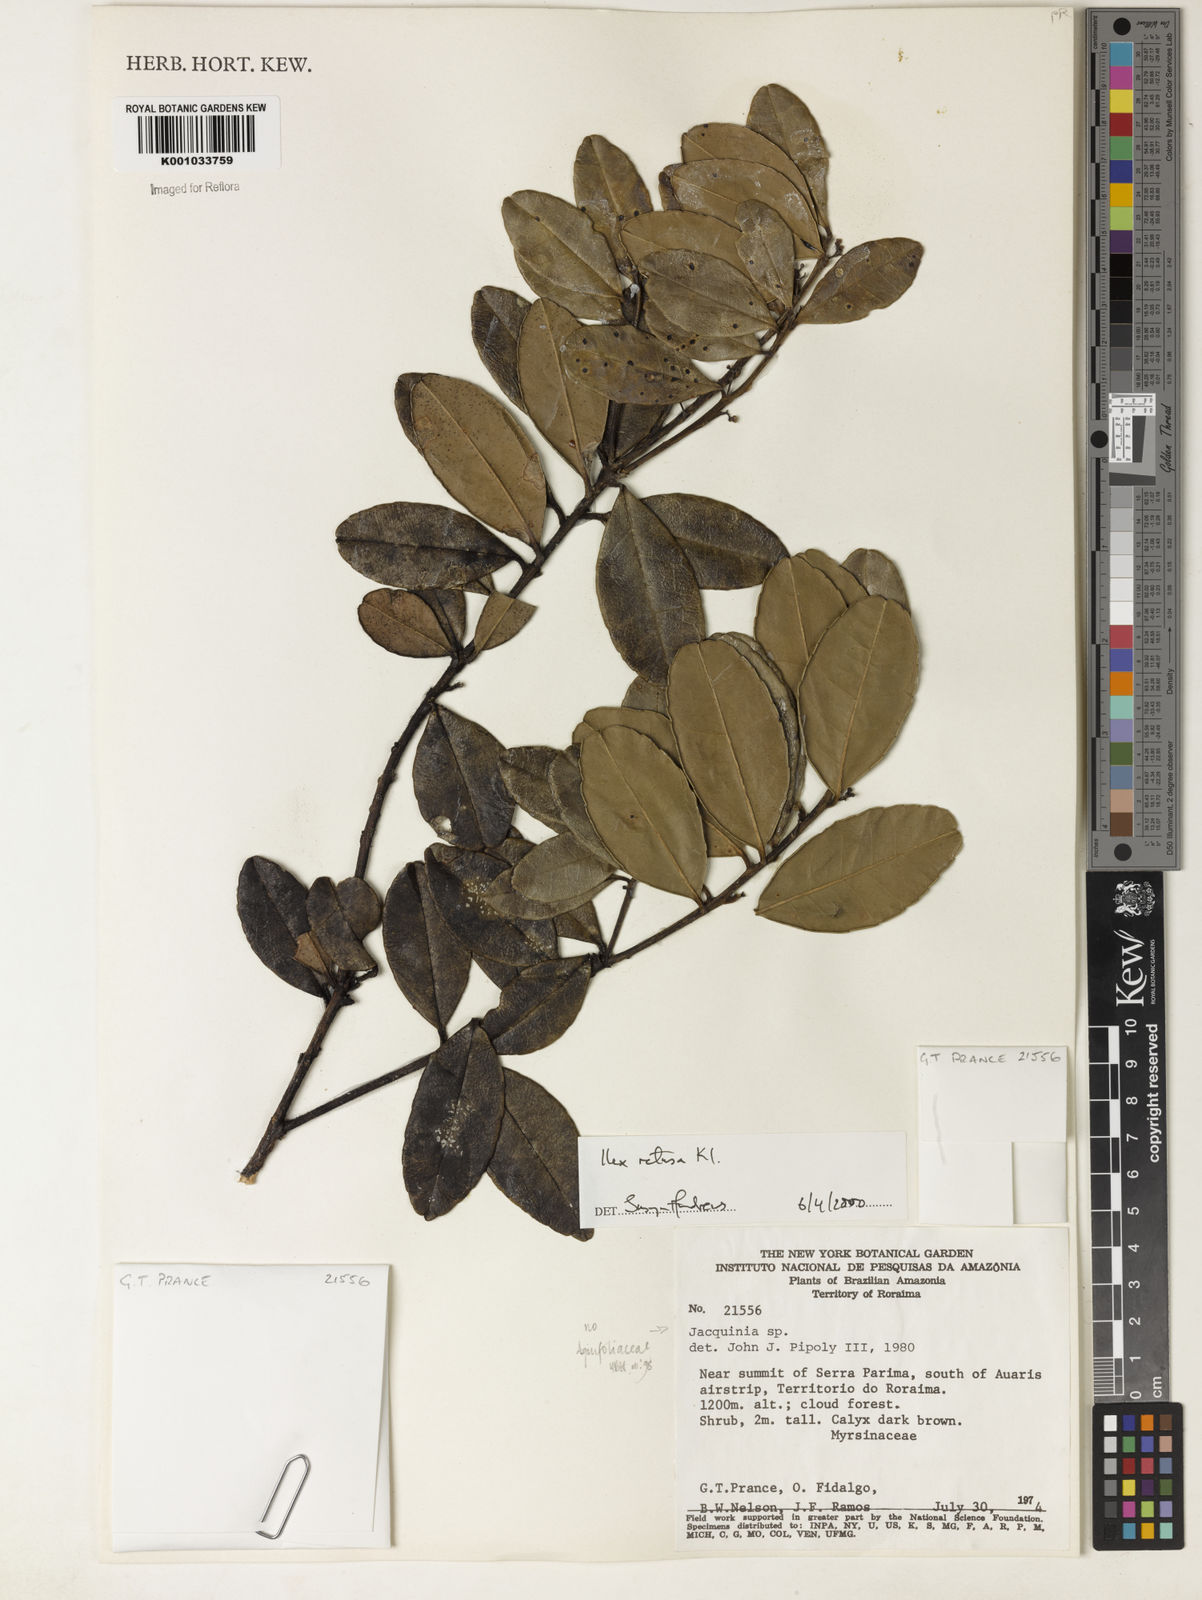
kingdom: Plantae
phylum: Tracheophyta
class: Magnoliopsida
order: Aquifoliales
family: Aquifoliaceae
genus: Ilex
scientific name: Ilex
